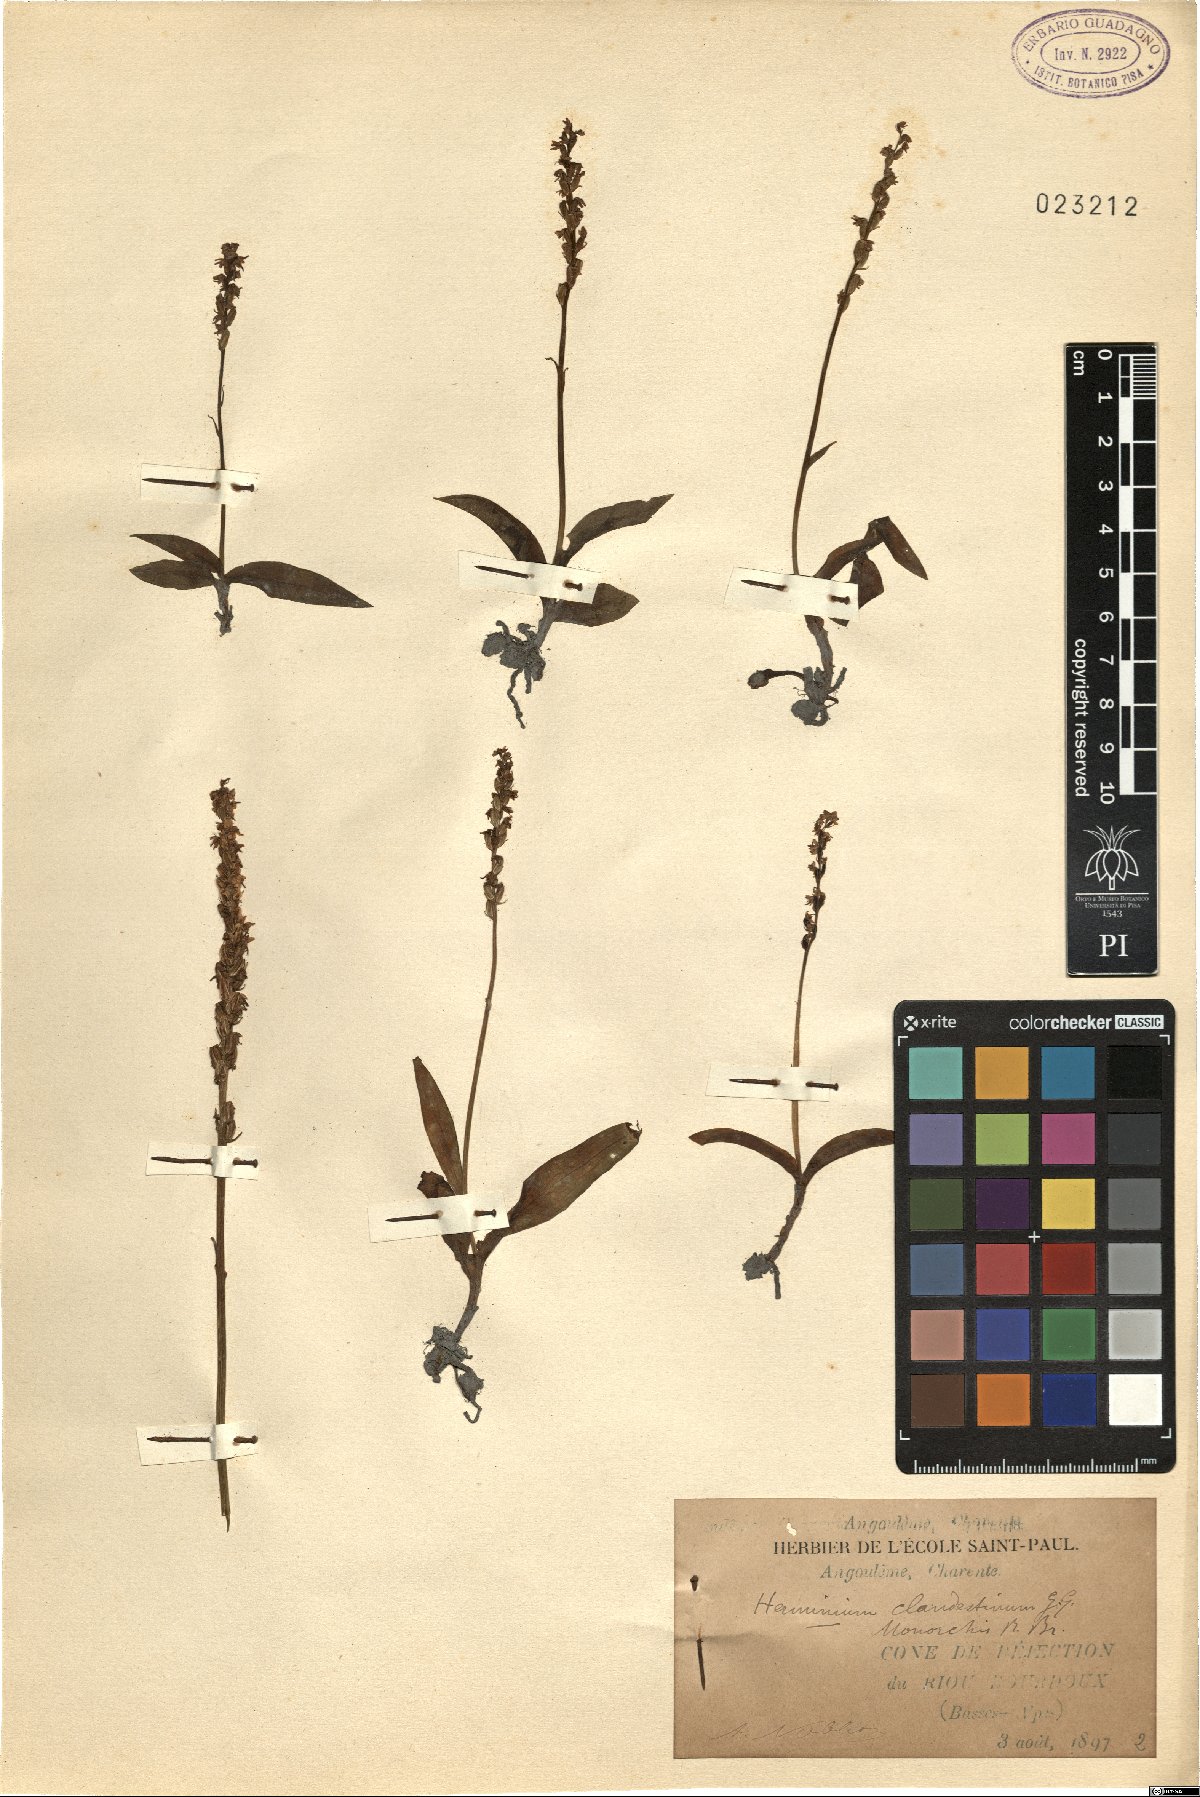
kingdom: Plantae
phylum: Tracheophyta
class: Liliopsida
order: Asparagales
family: Orchidaceae
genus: Herminium
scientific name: Herminium monorchis
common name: Musk orchid
